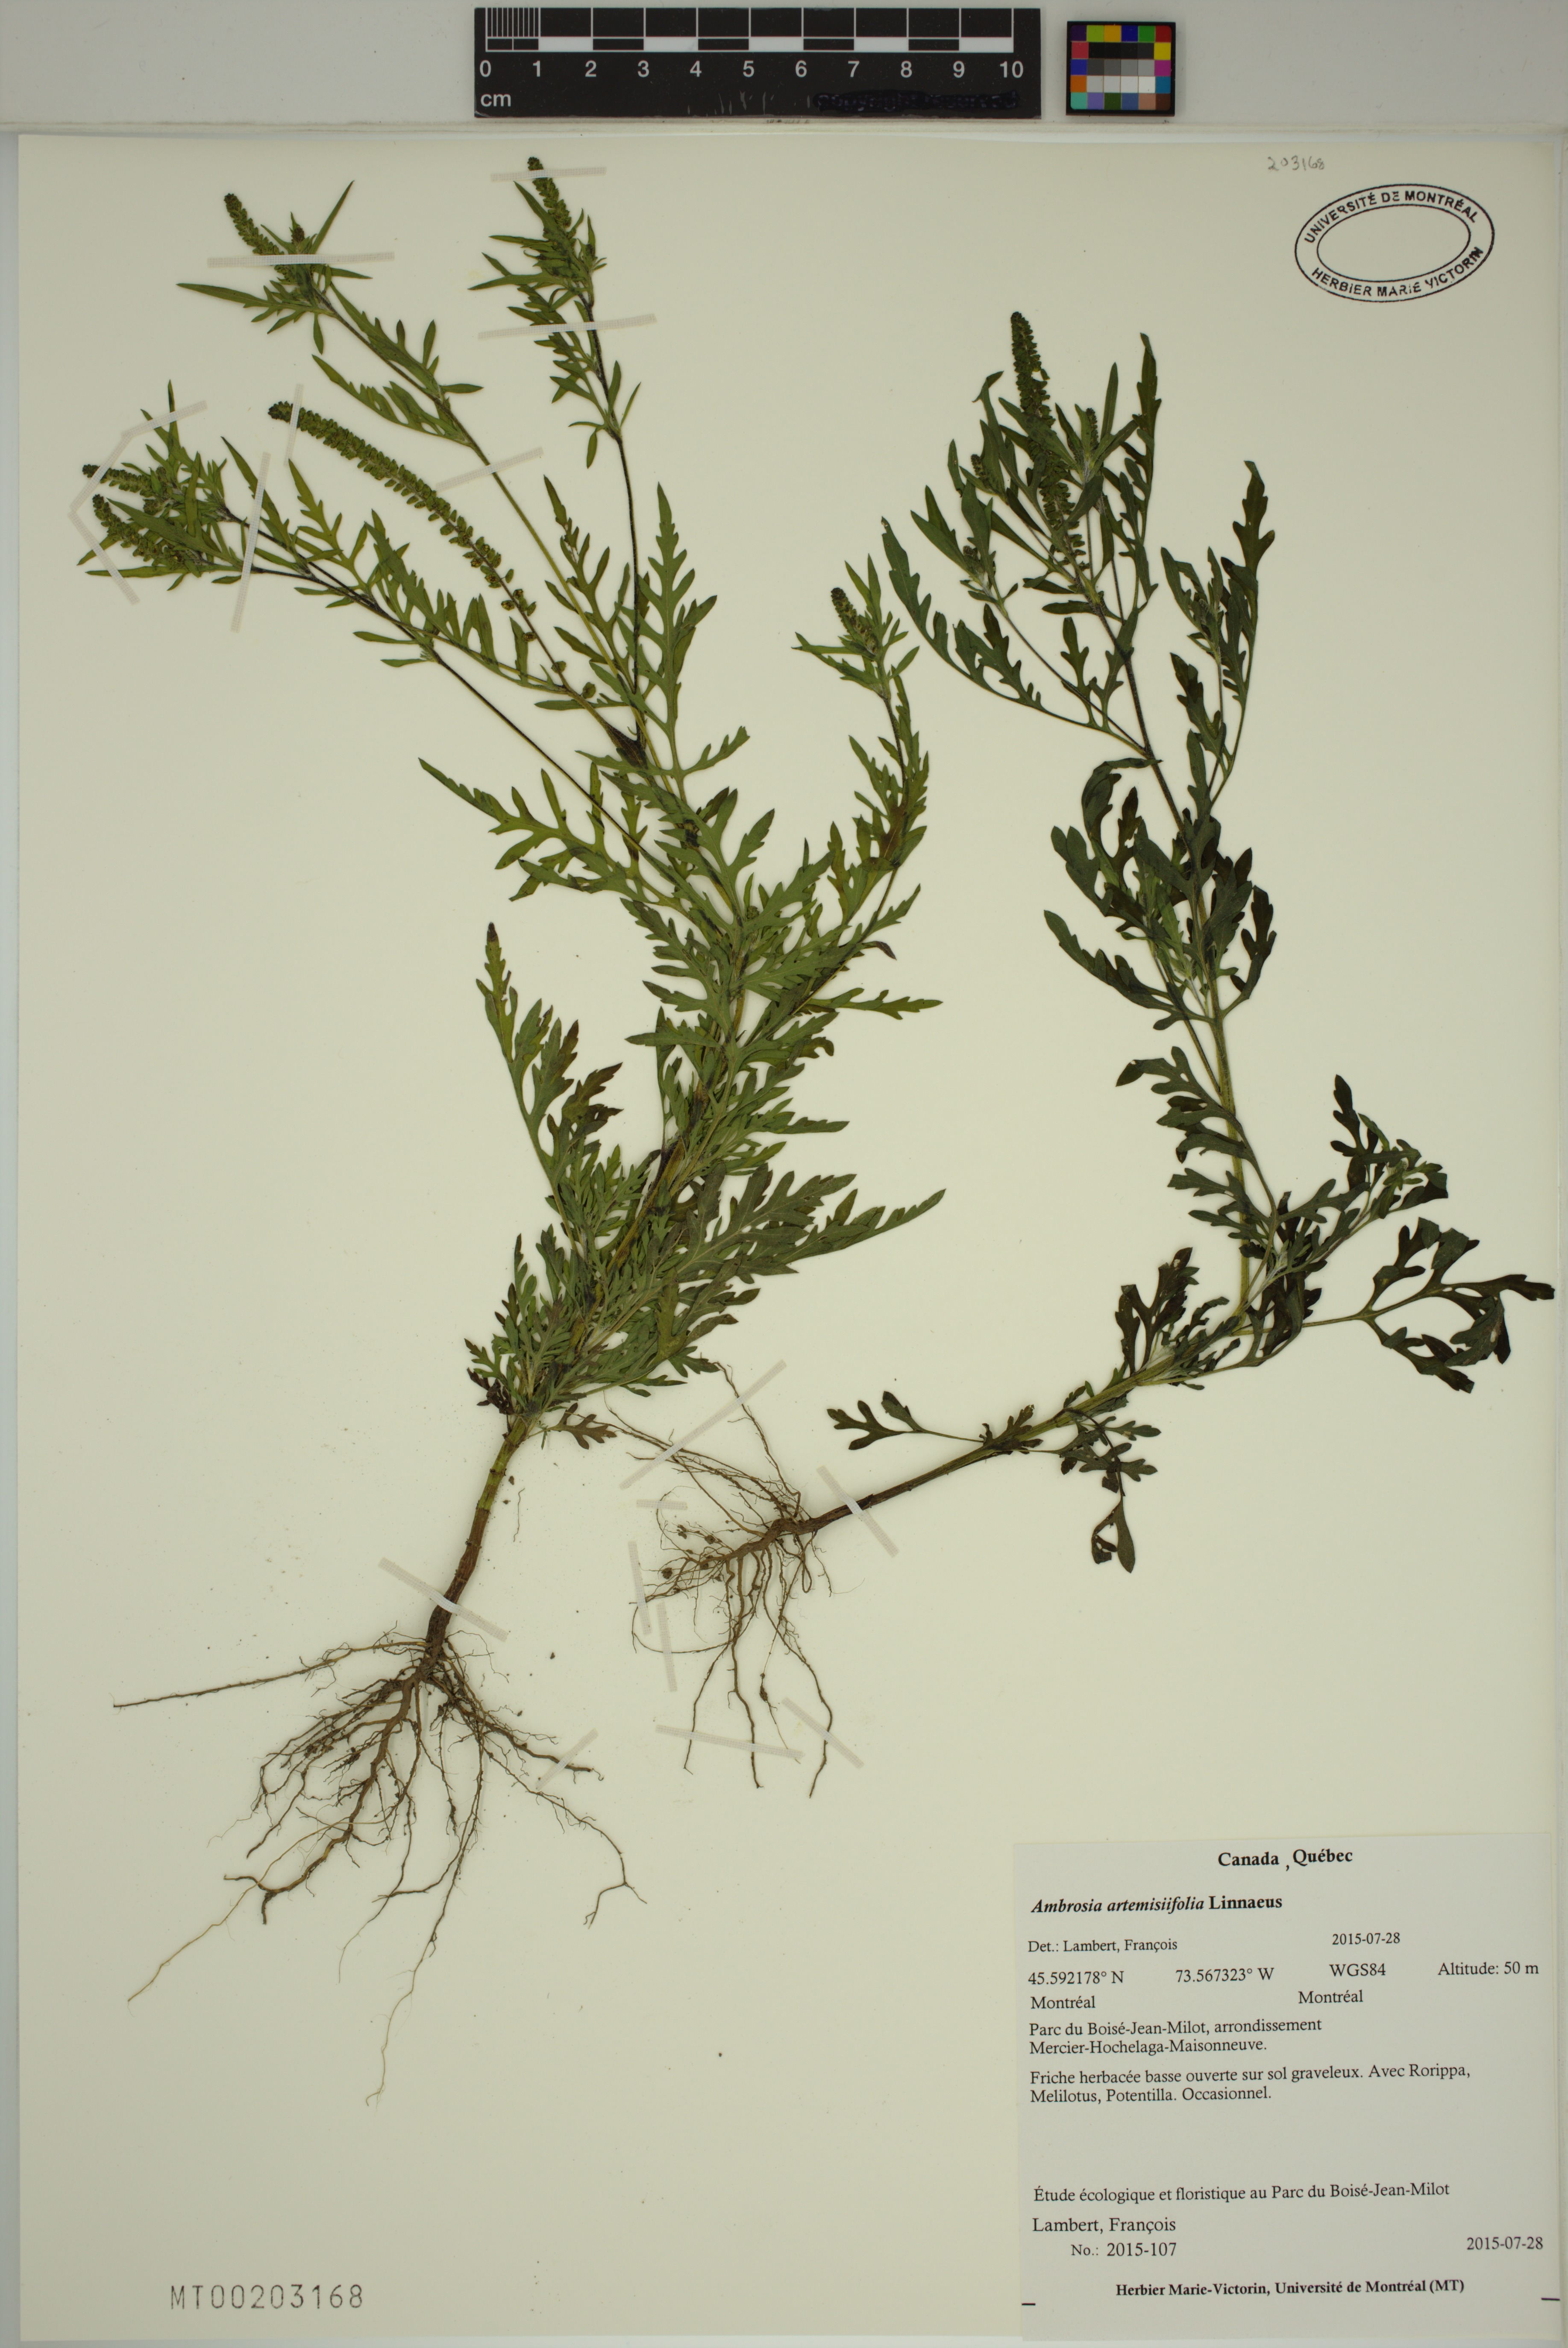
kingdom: Plantae
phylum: Tracheophyta
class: Magnoliopsida
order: Asterales
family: Asteraceae
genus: Ambrosia
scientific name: Ambrosia artemisiifolia
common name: Annual ragweed
